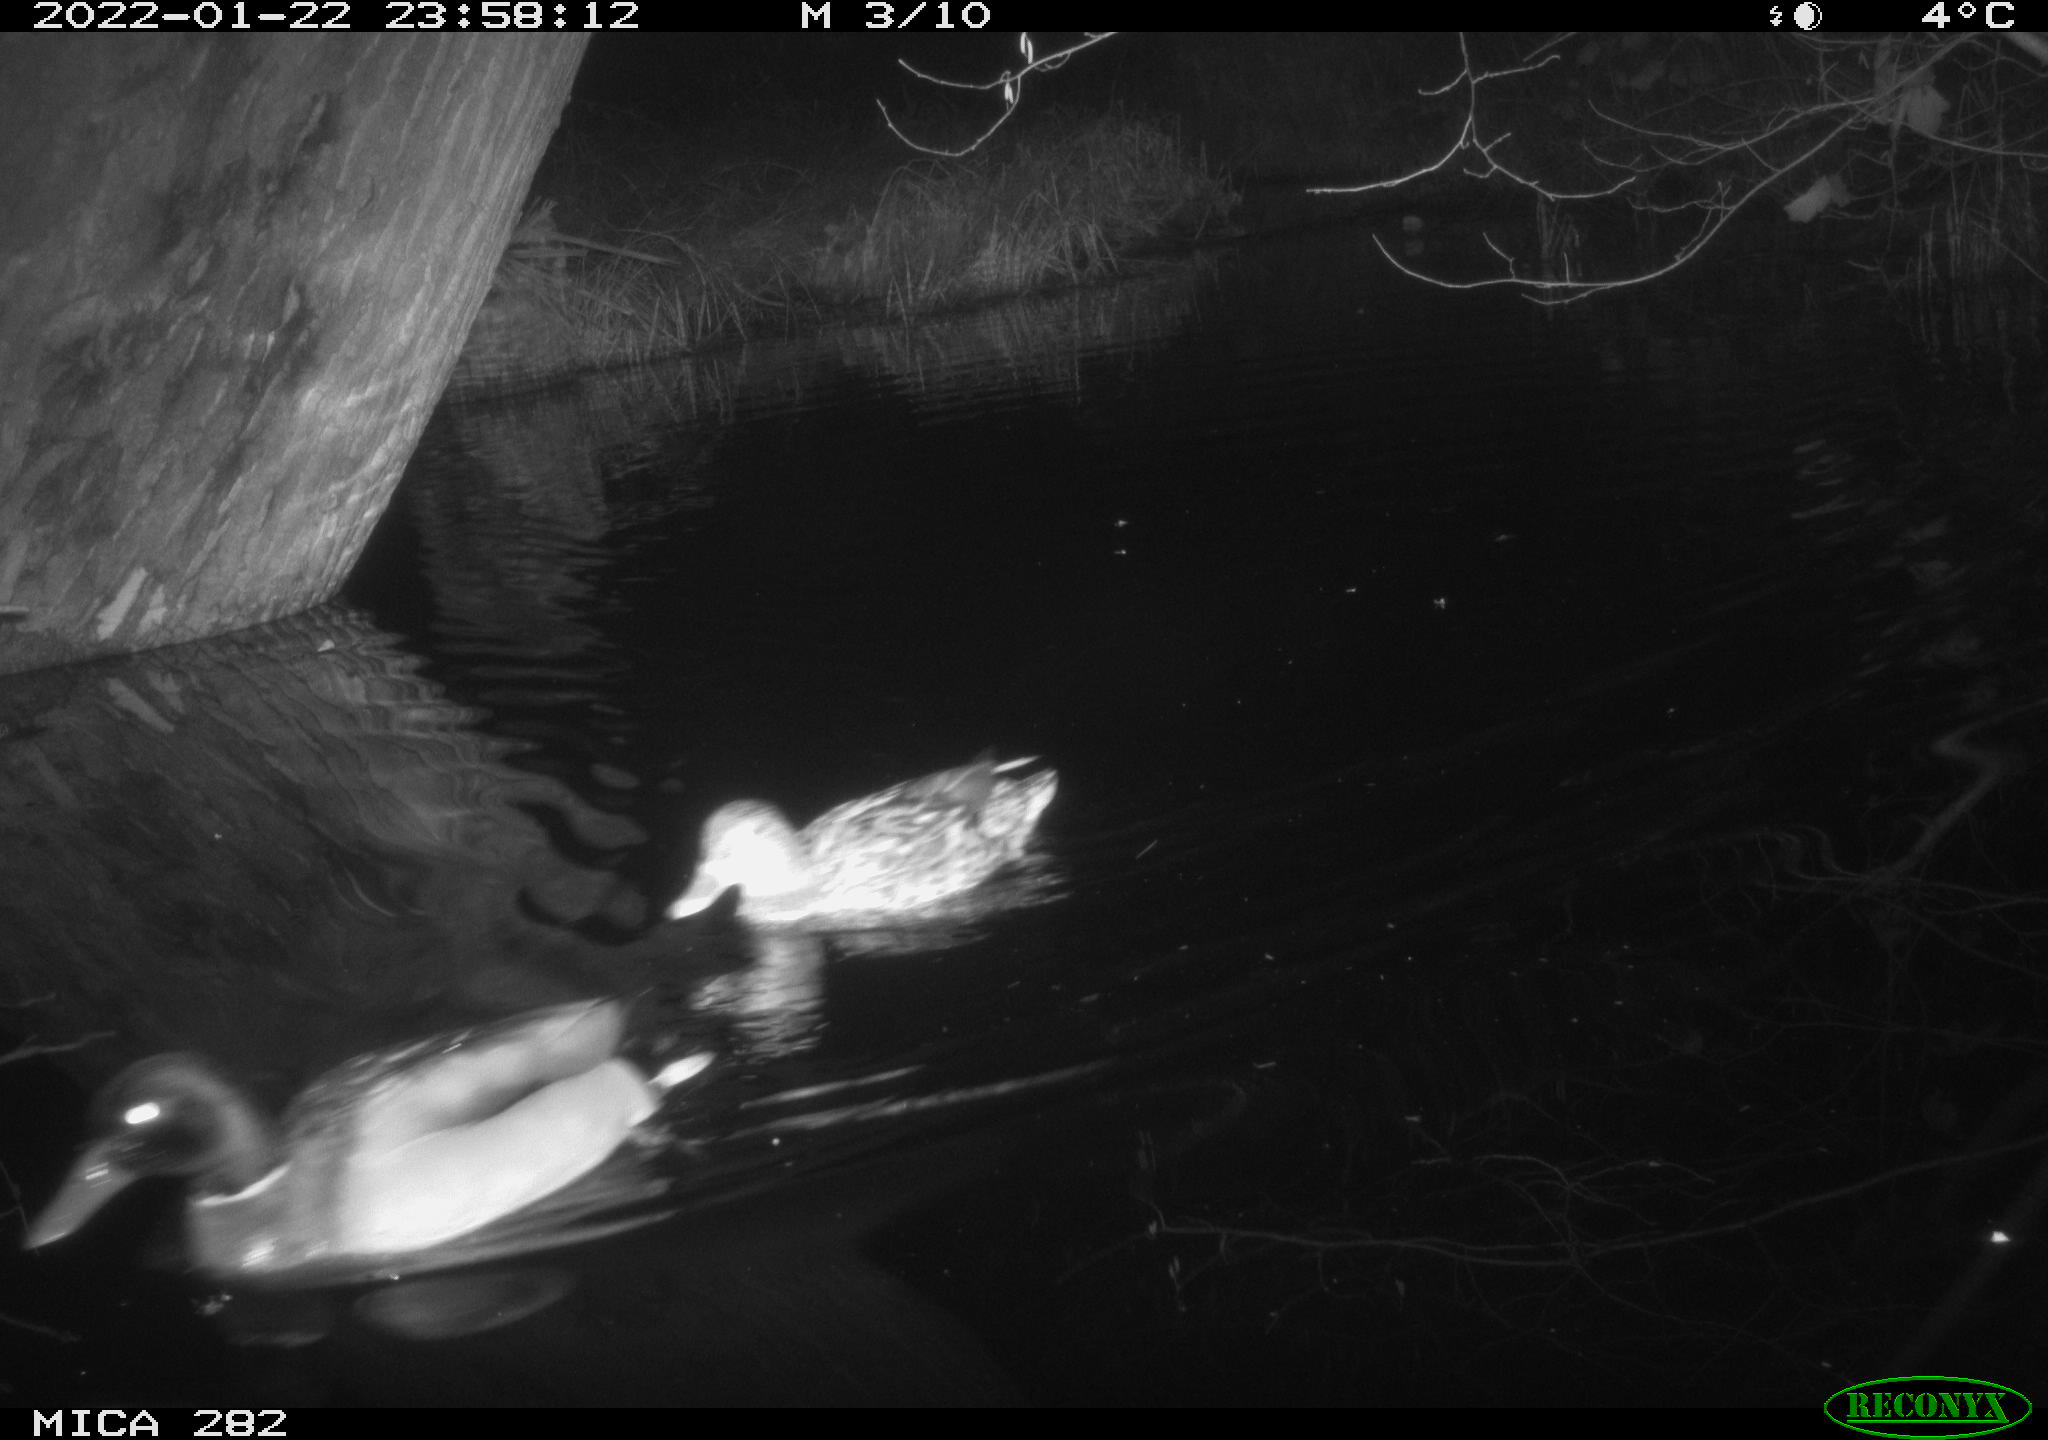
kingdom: Animalia
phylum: Chordata
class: Aves
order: Anseriformes
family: Anatidae
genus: Anas
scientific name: Anas platyrhynchos
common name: Mallard
